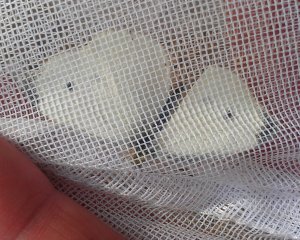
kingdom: Animalia
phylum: Arthropoda
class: Insecta
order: Lepidoptera
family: Pieridae
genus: Pieris
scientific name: Pieris rapae
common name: Cabbage White
